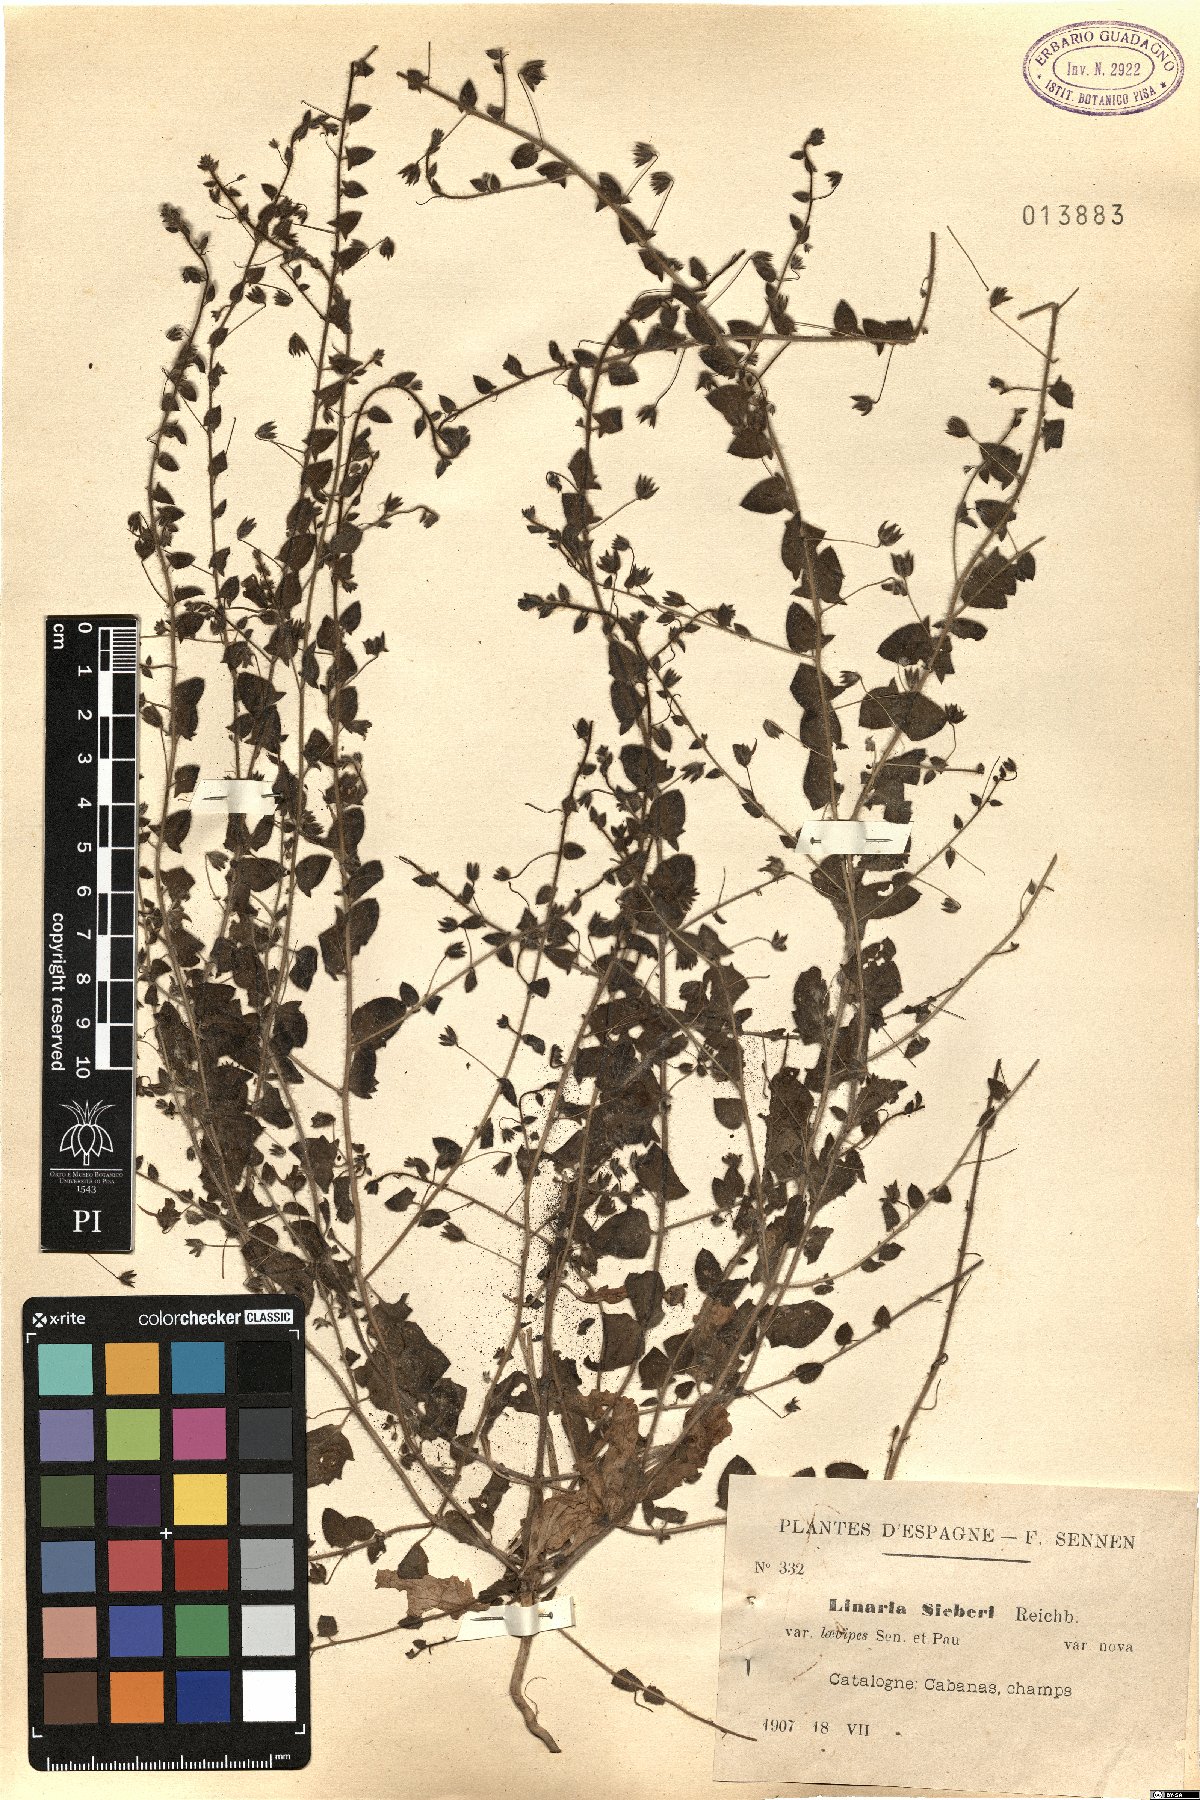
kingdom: Plantae
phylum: Tracheophyta
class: Magnoliopsida
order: Lamiales
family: Plantaginaceae
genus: Kickxia
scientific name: Kickxia elatine
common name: Sharp-leaved fluellen
